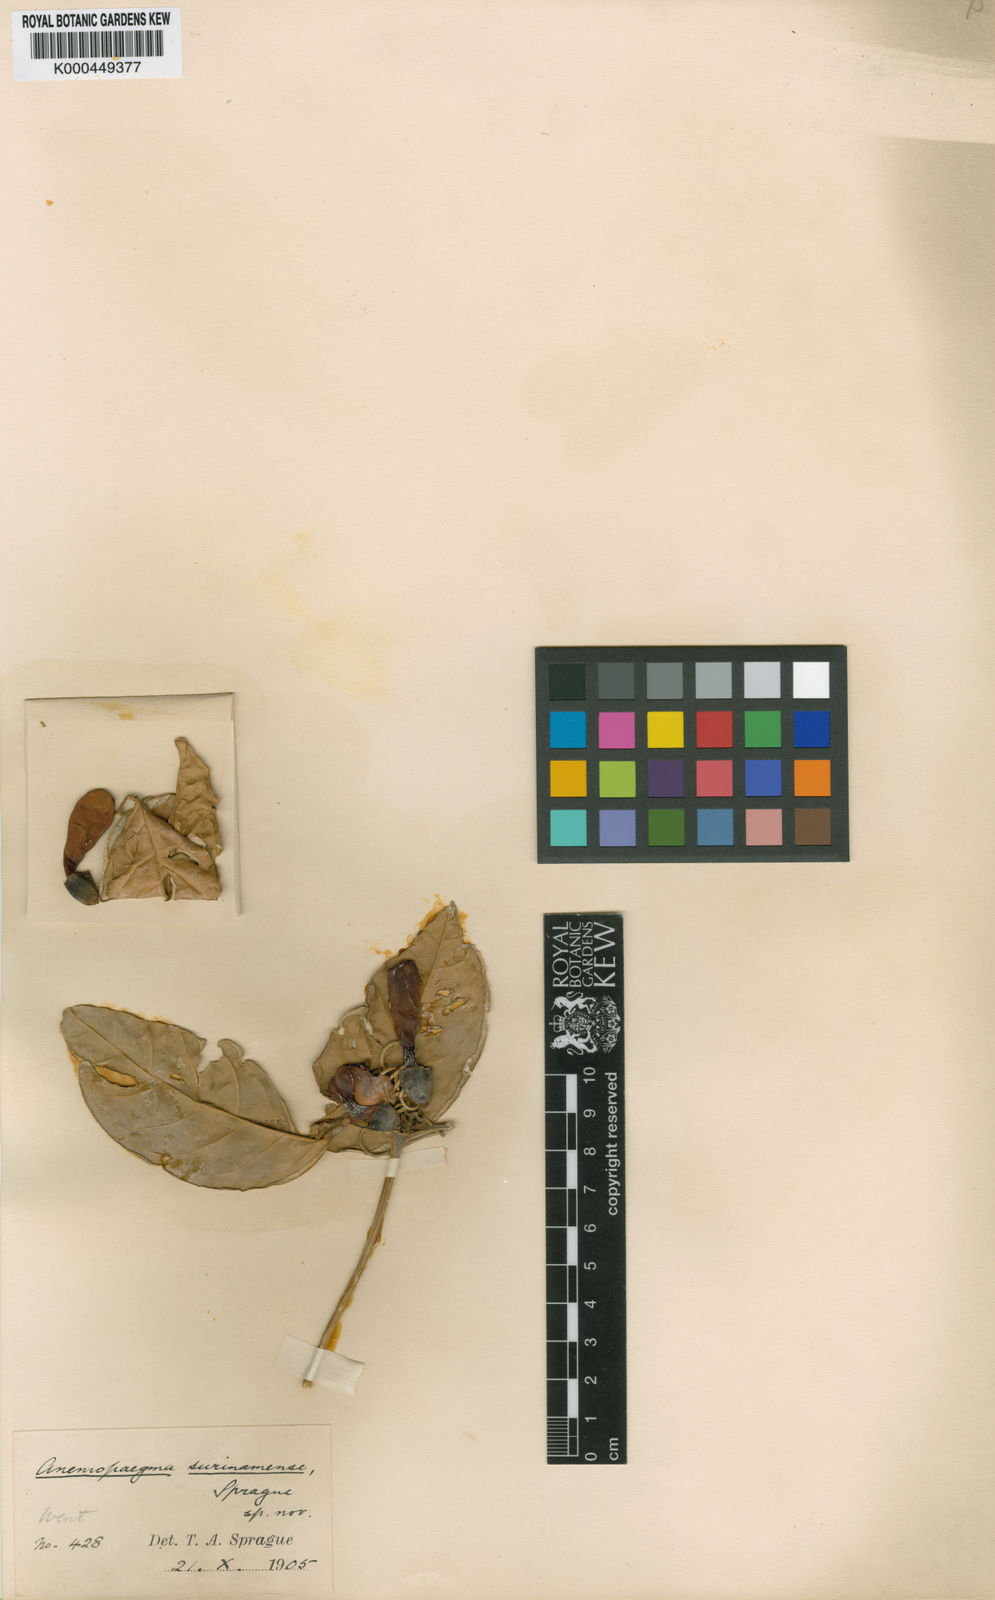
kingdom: Plantae
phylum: Tracheophyta
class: Magnoliopsida
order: Lamiales
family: Bignoniaceae
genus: Anemopaegma
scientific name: Anemopaegma chrysoleucum
